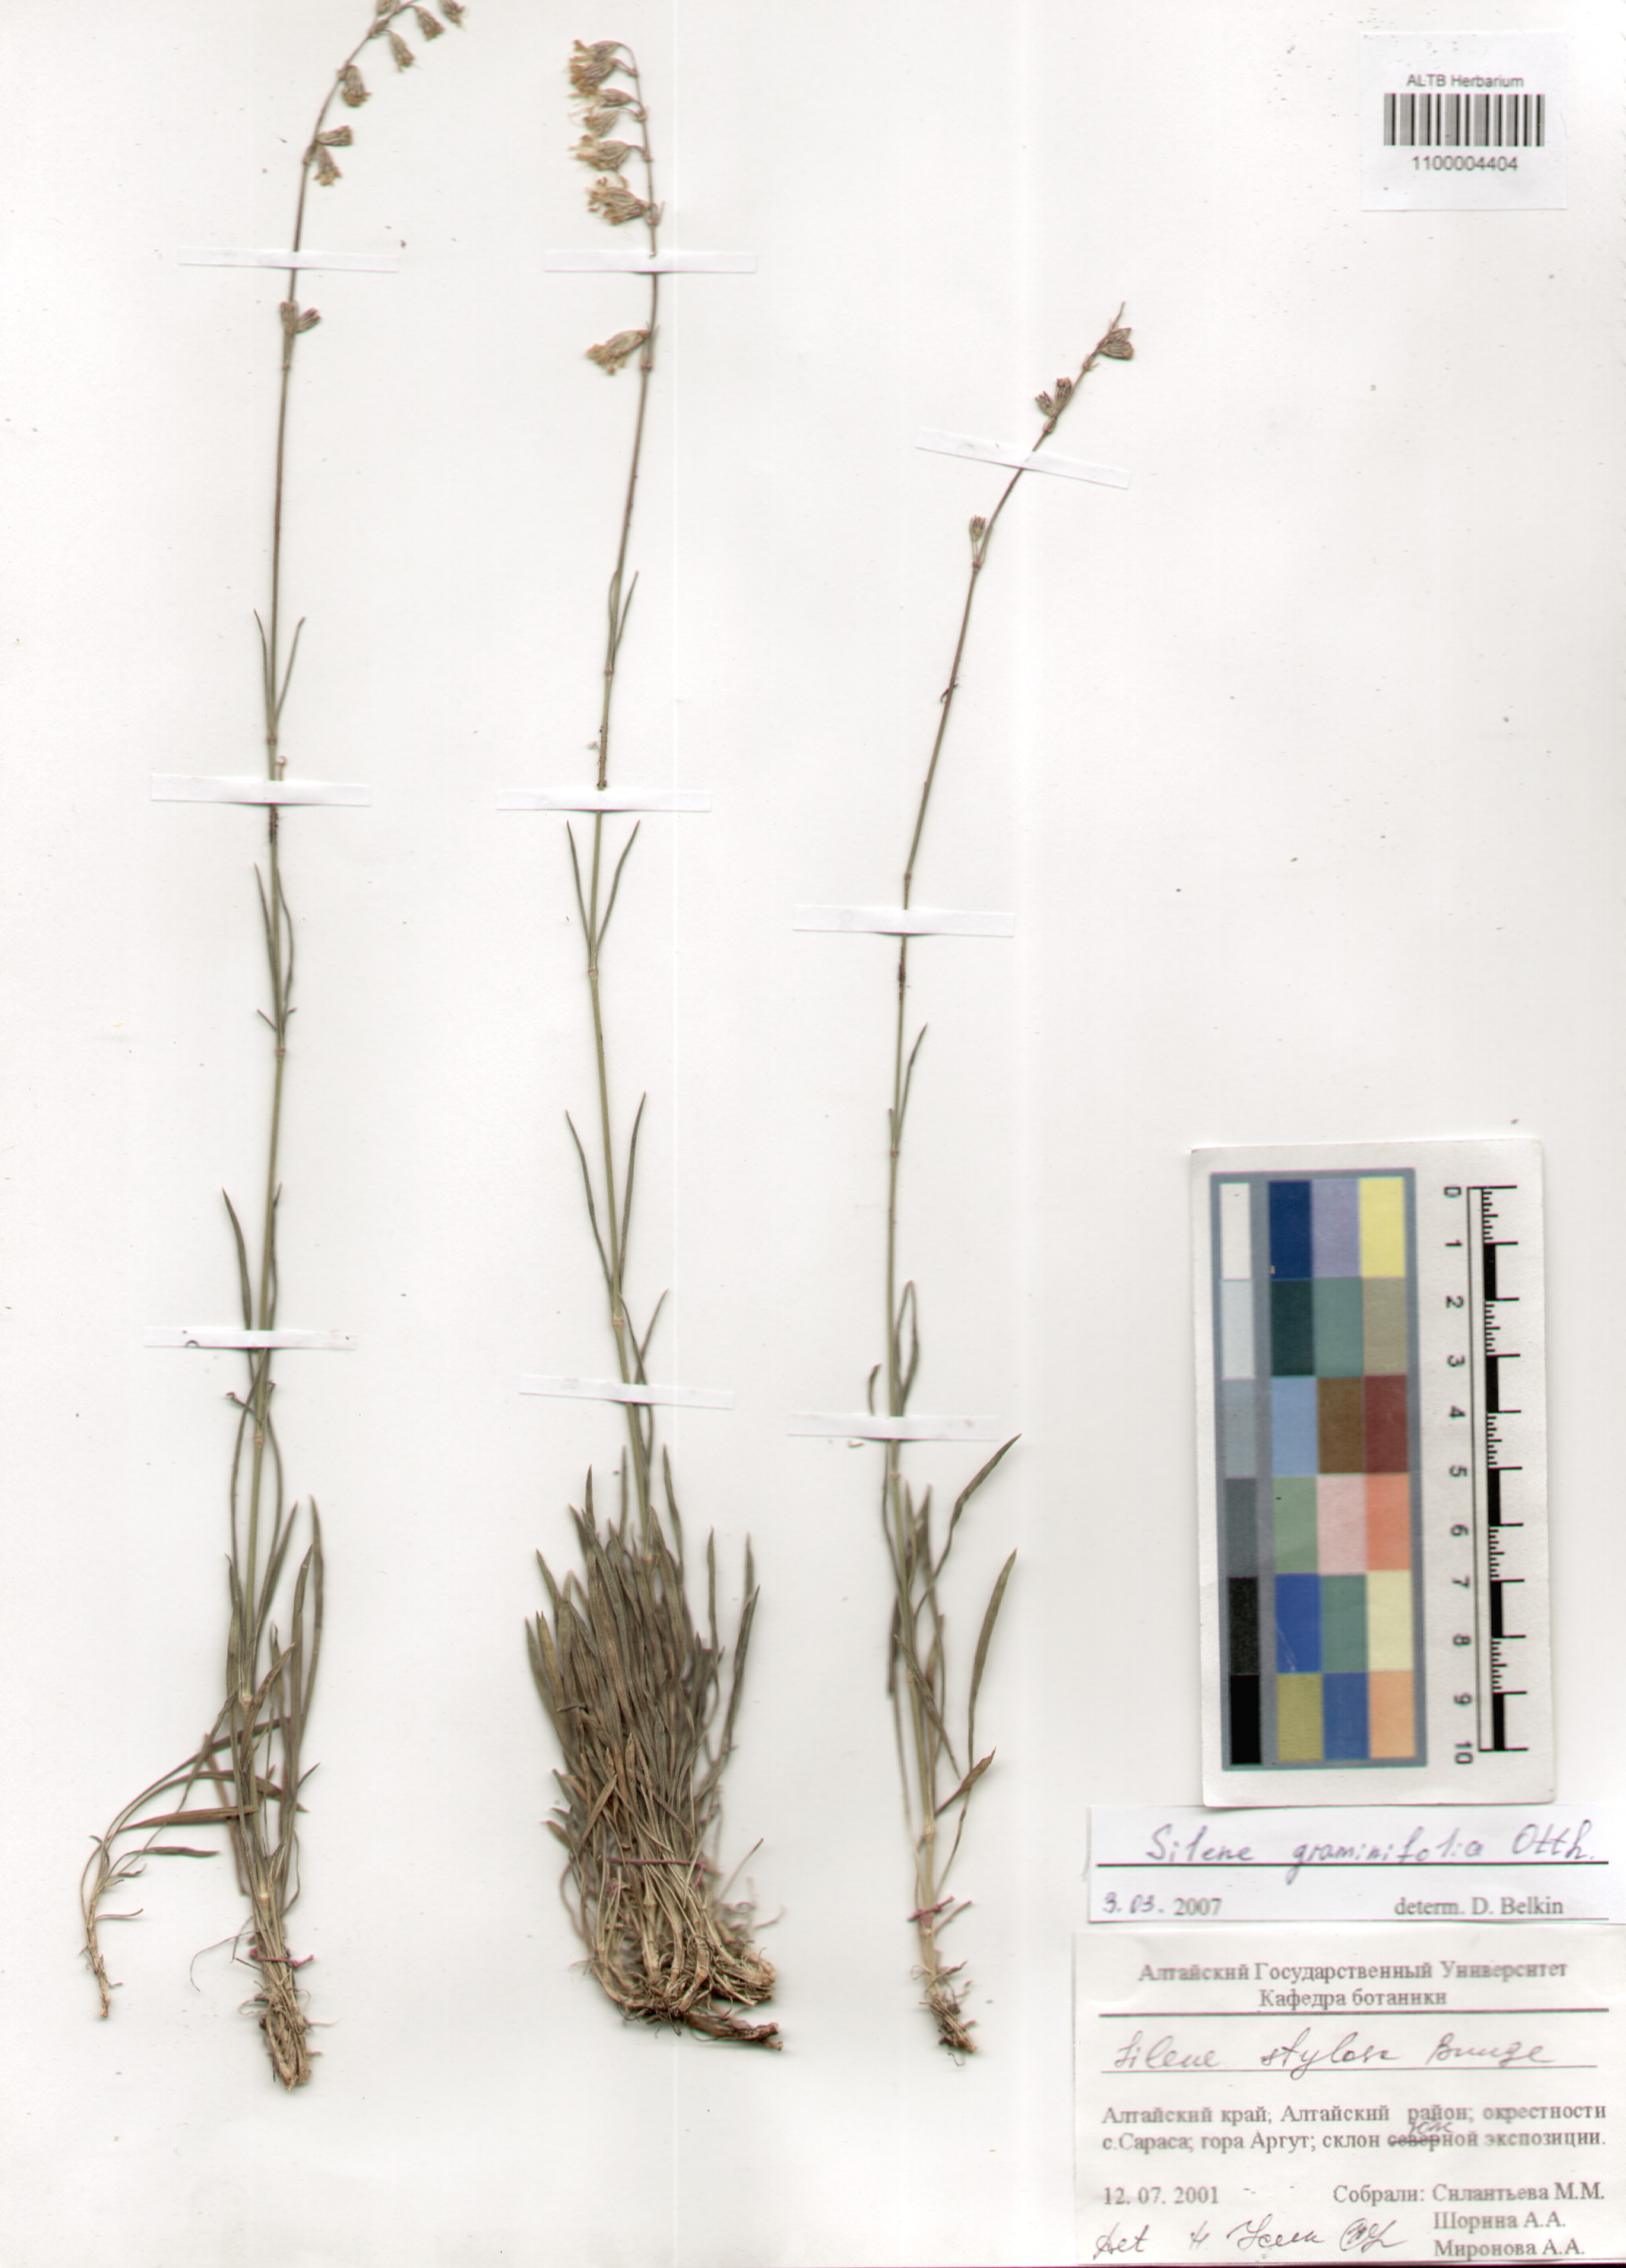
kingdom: Plantae
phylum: Tracheophyta
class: Magnoliopsida
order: Caryophyllales
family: Caryophyllaceae
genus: Silene
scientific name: Silene graminifolia
